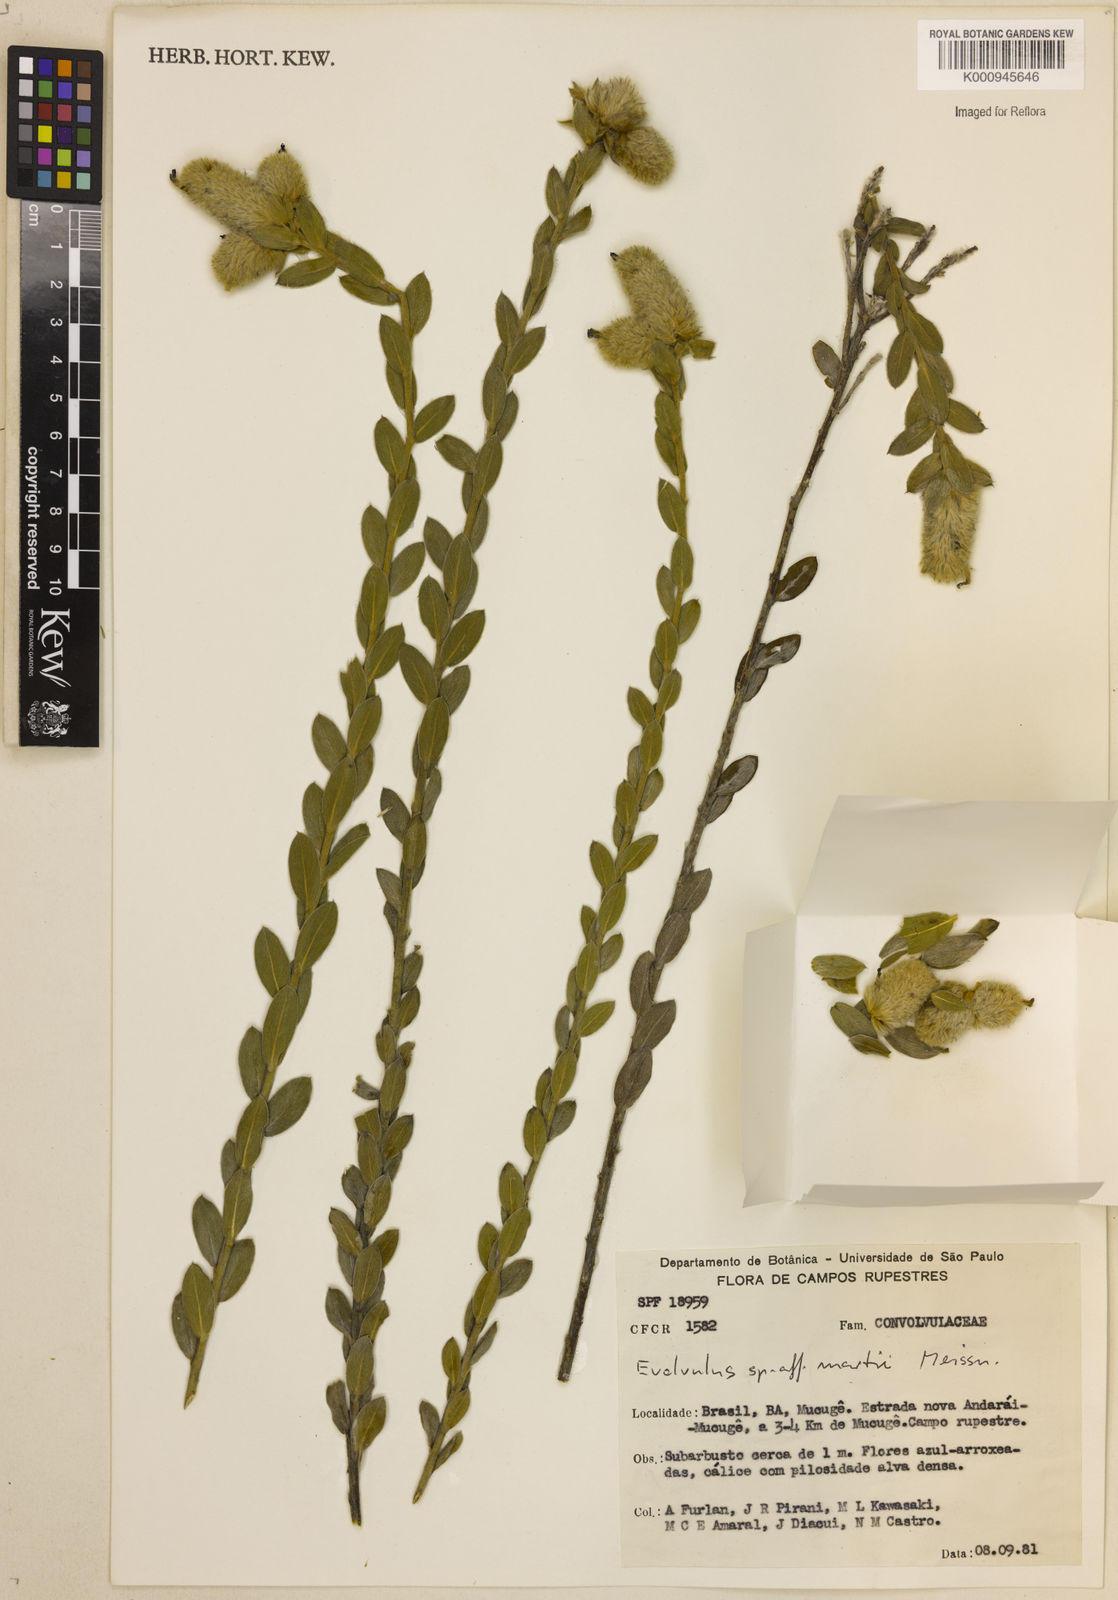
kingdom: Plantae
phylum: Tracheophyta
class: Magnoliopsida
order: Solanales
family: Convolvulaceae
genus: Evolvulus
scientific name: Evolvulus
